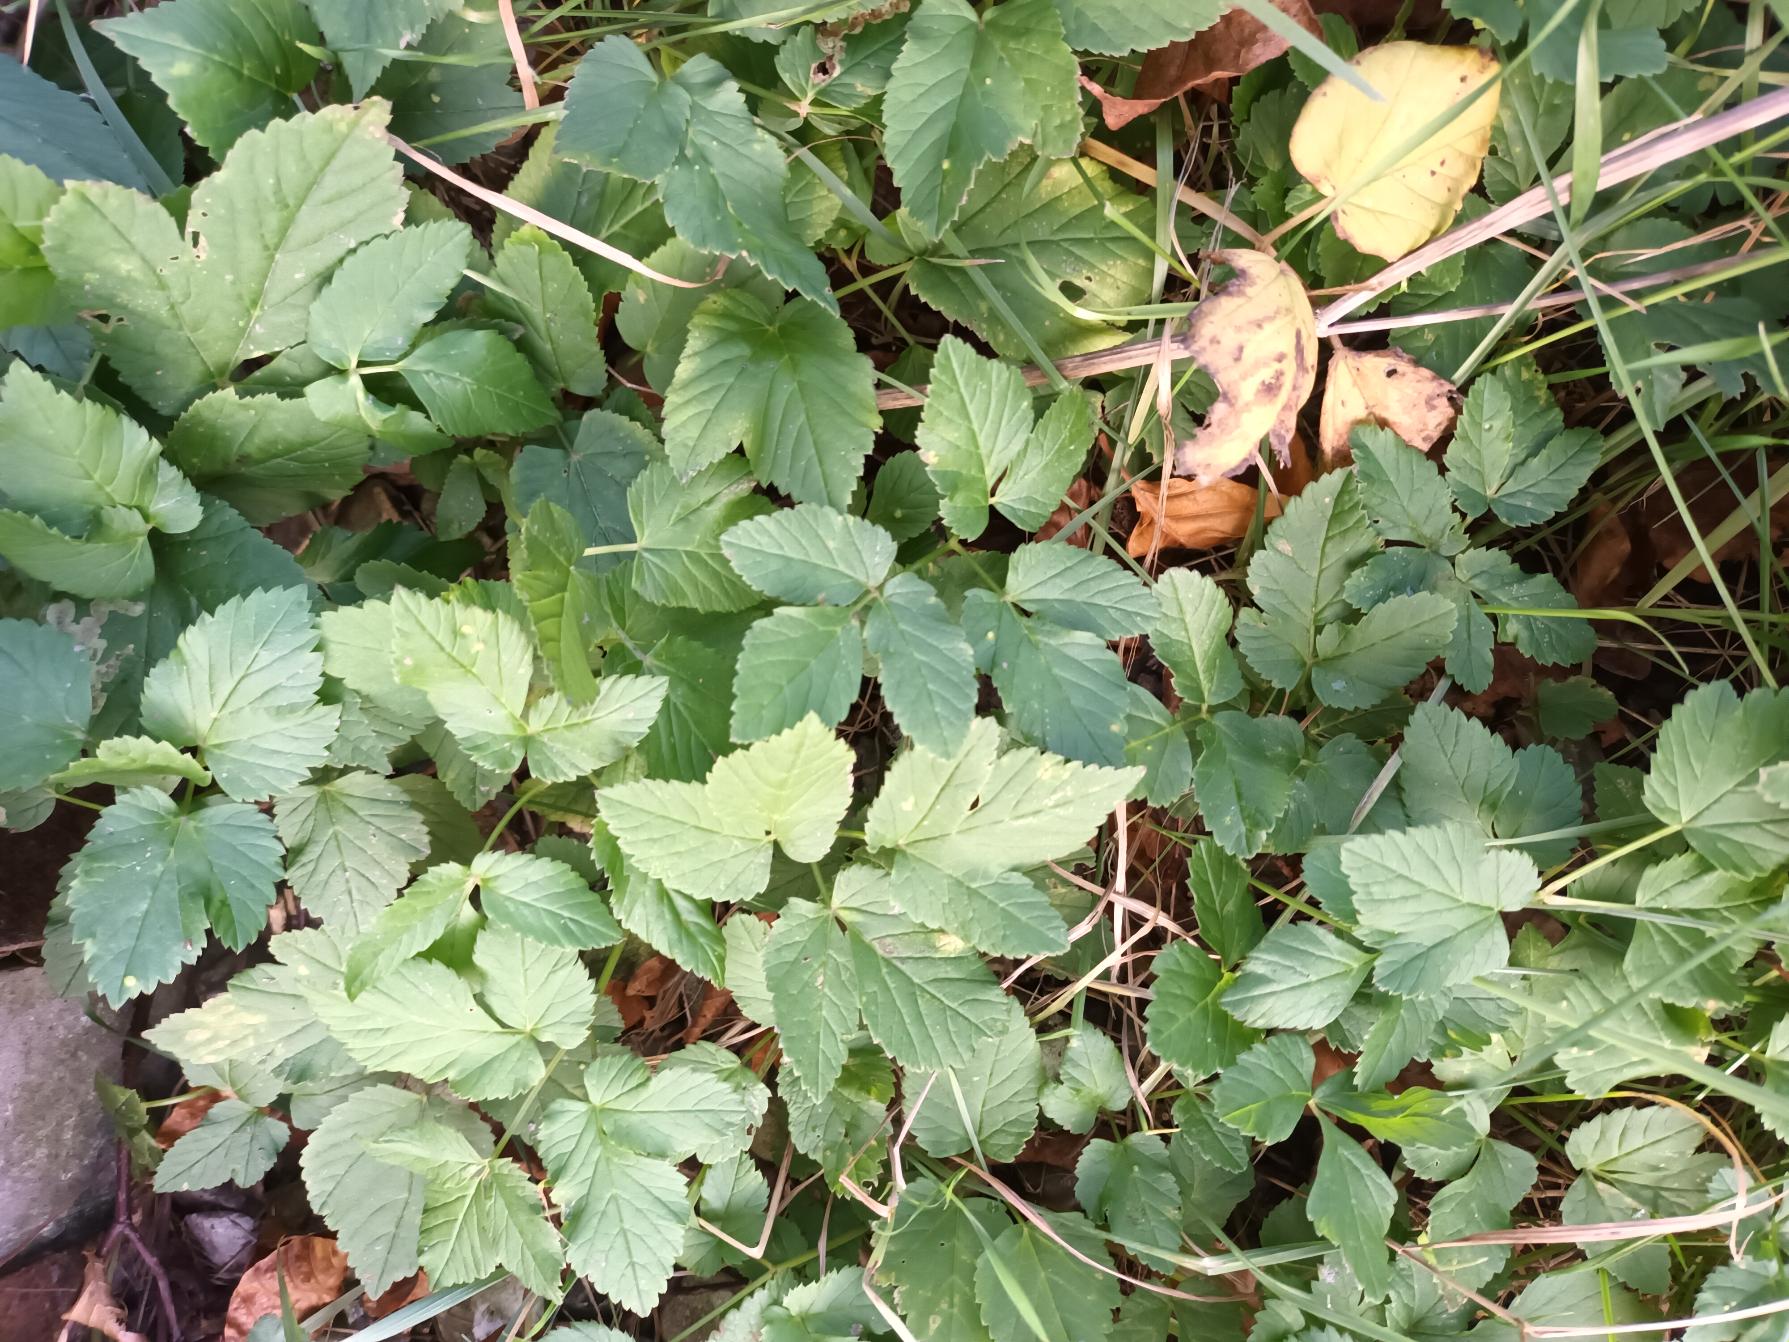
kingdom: Plantae
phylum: Tracheophyta
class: Magnoliopsida
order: Apiales
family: Apiaceae
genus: Aegopodium
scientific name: Aegopodium podagraria
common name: Skvalderkål
